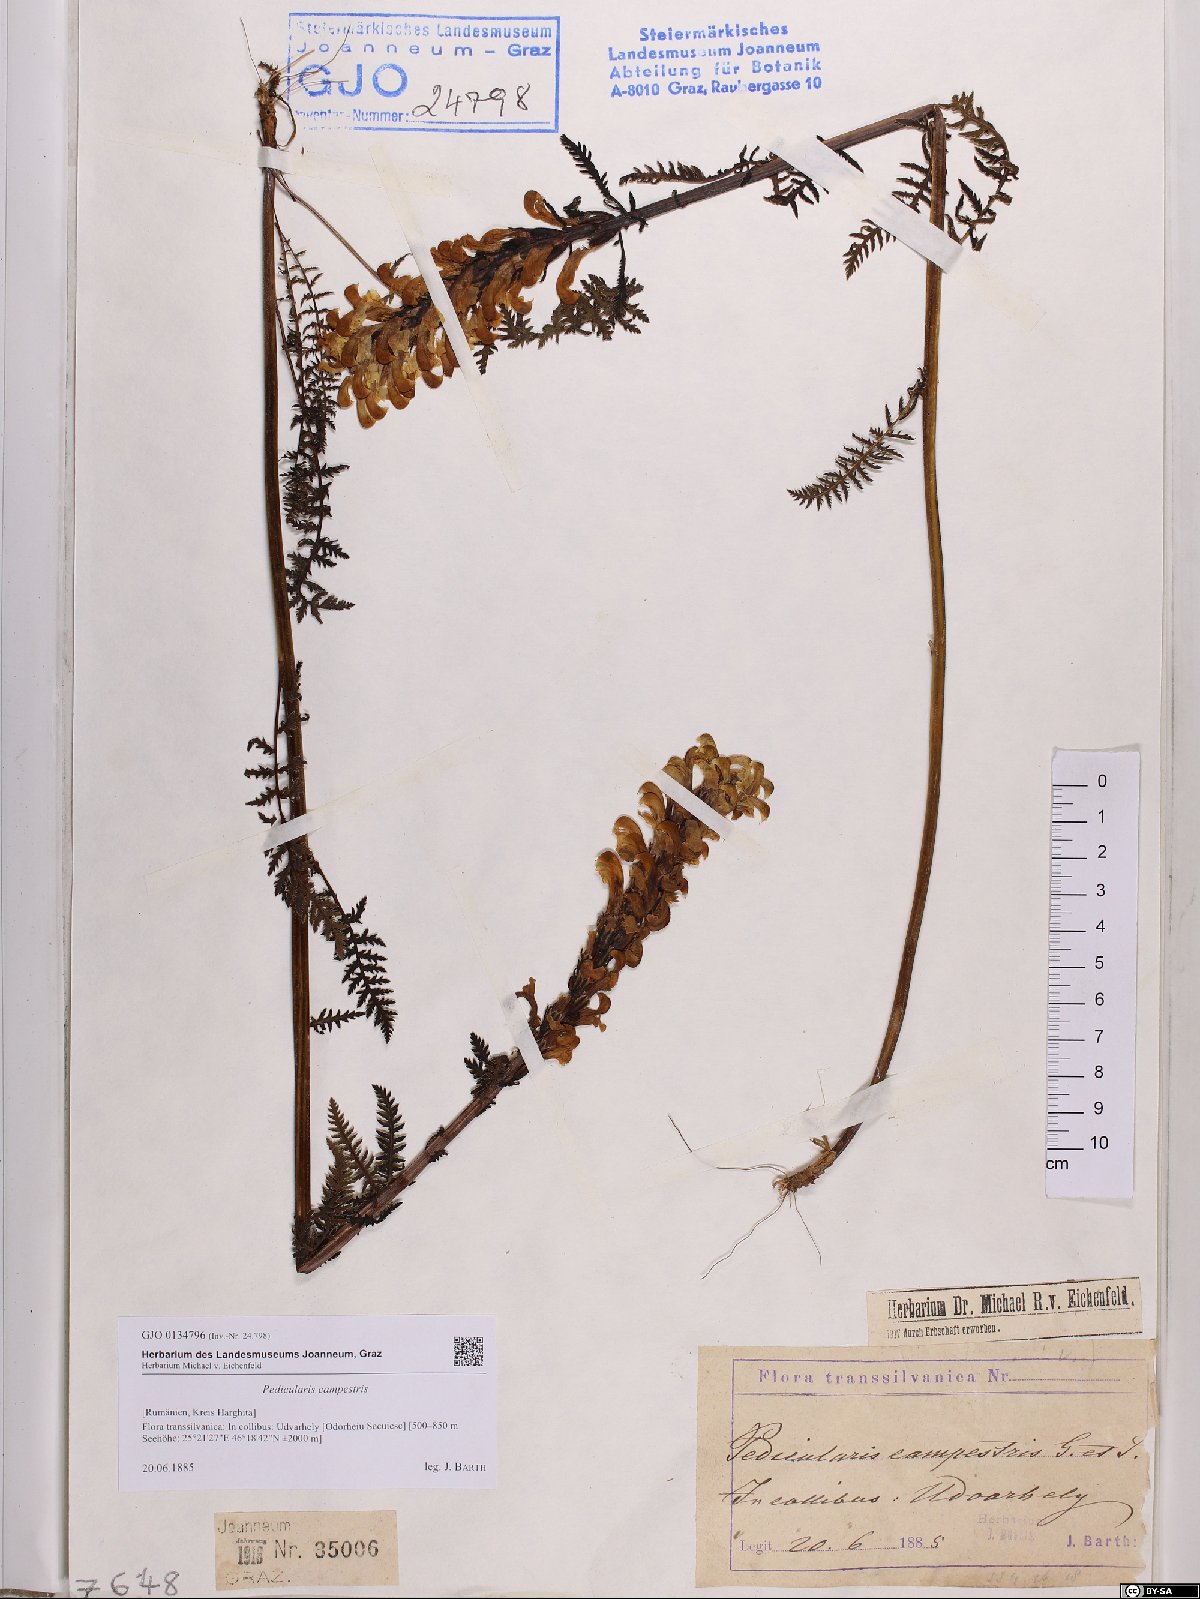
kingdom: Plantae
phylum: Tracheophyta
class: Magnoliopsida
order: Lamiales
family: Orobanchaceae
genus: Pedicularis
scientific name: Pedicularis comosa
